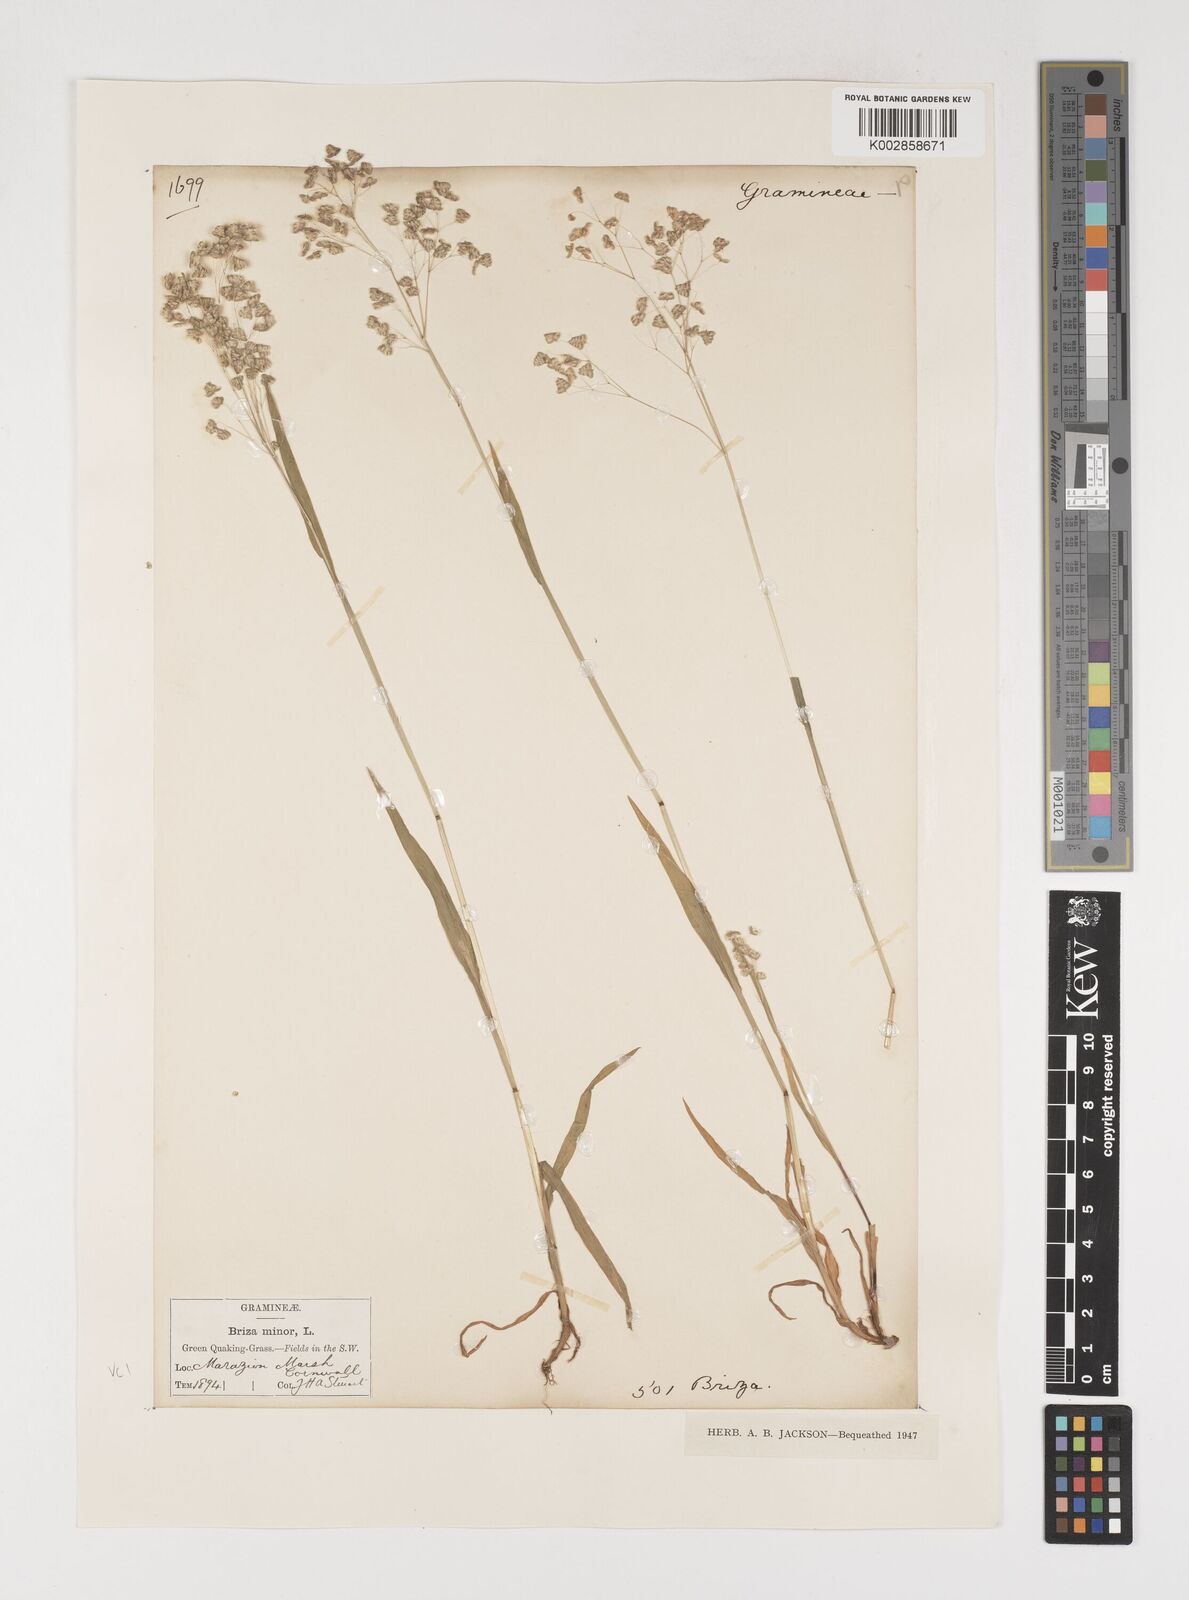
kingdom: Plantae
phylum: Tracheophyta
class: Liliopsida
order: Poales
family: Poaceae
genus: Briza
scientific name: Briza minor
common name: Lesser quaking-grass
